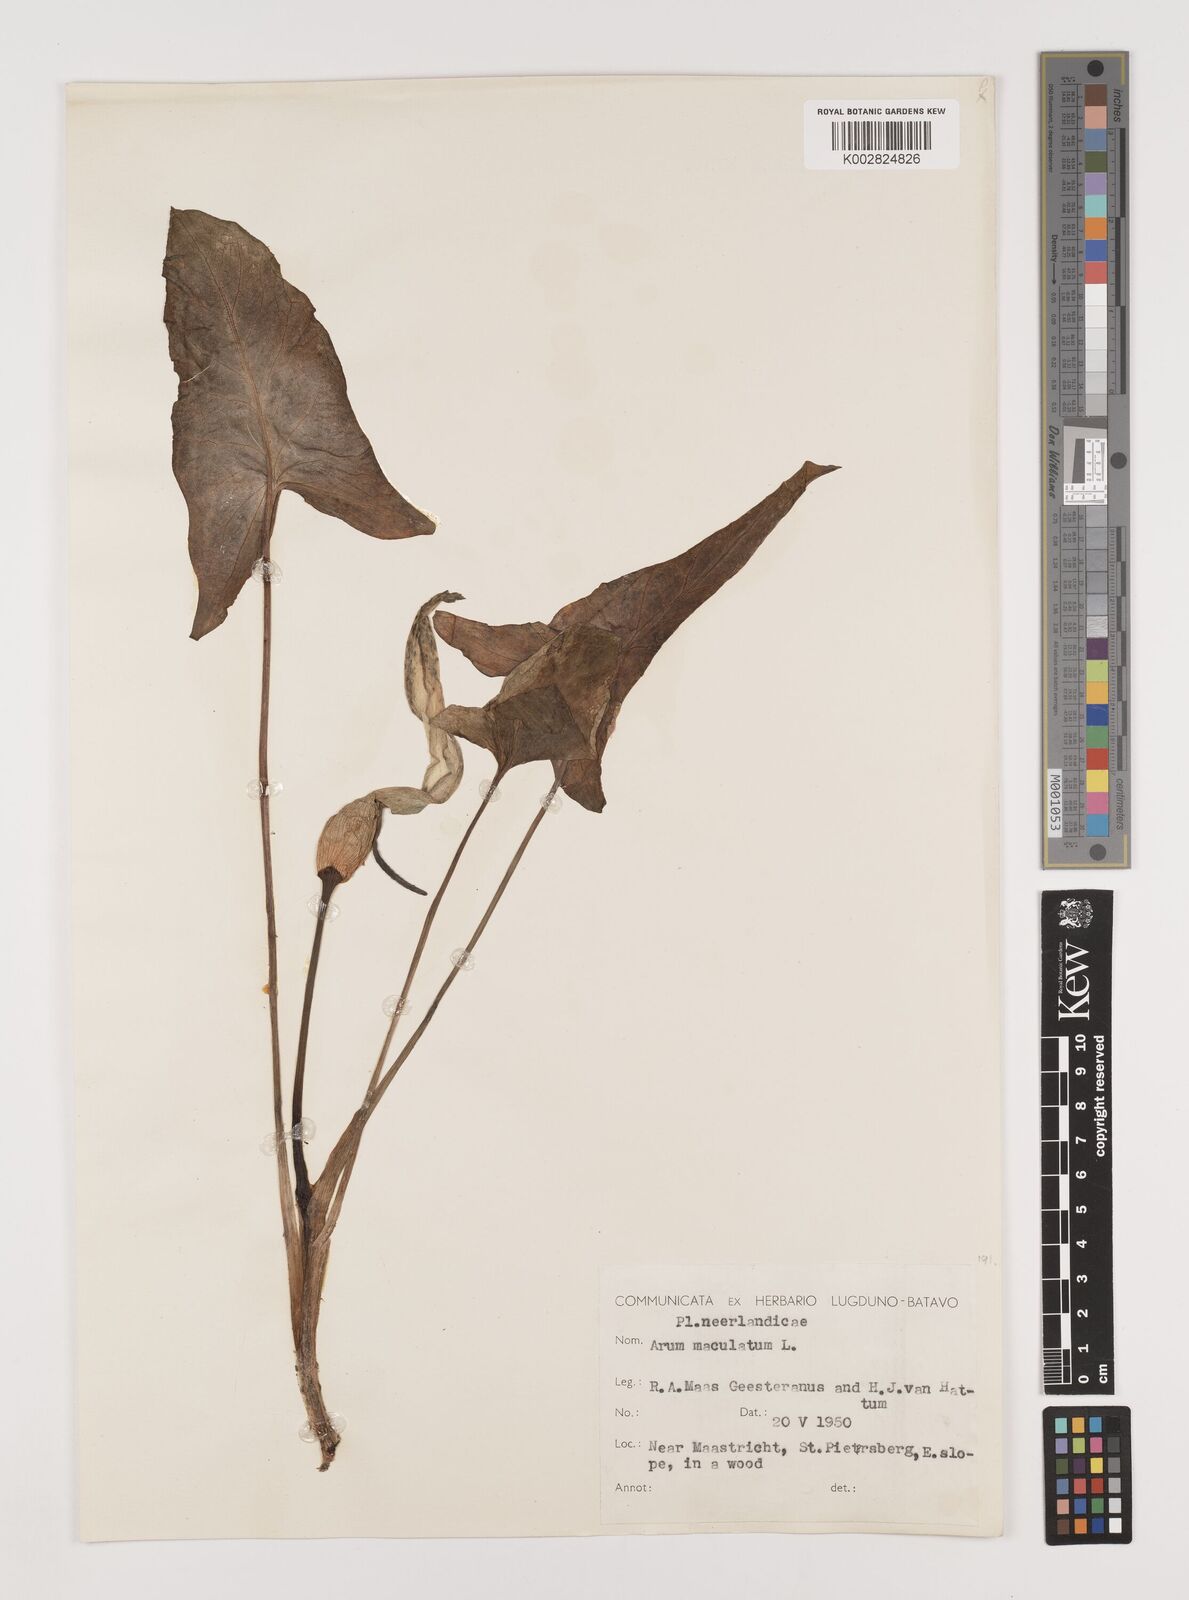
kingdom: Plantae
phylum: Tracheophyta
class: Liliopsida
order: Alismatales
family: Araceae
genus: Arum
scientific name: Arum maculatum
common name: Lords-and-ladies
